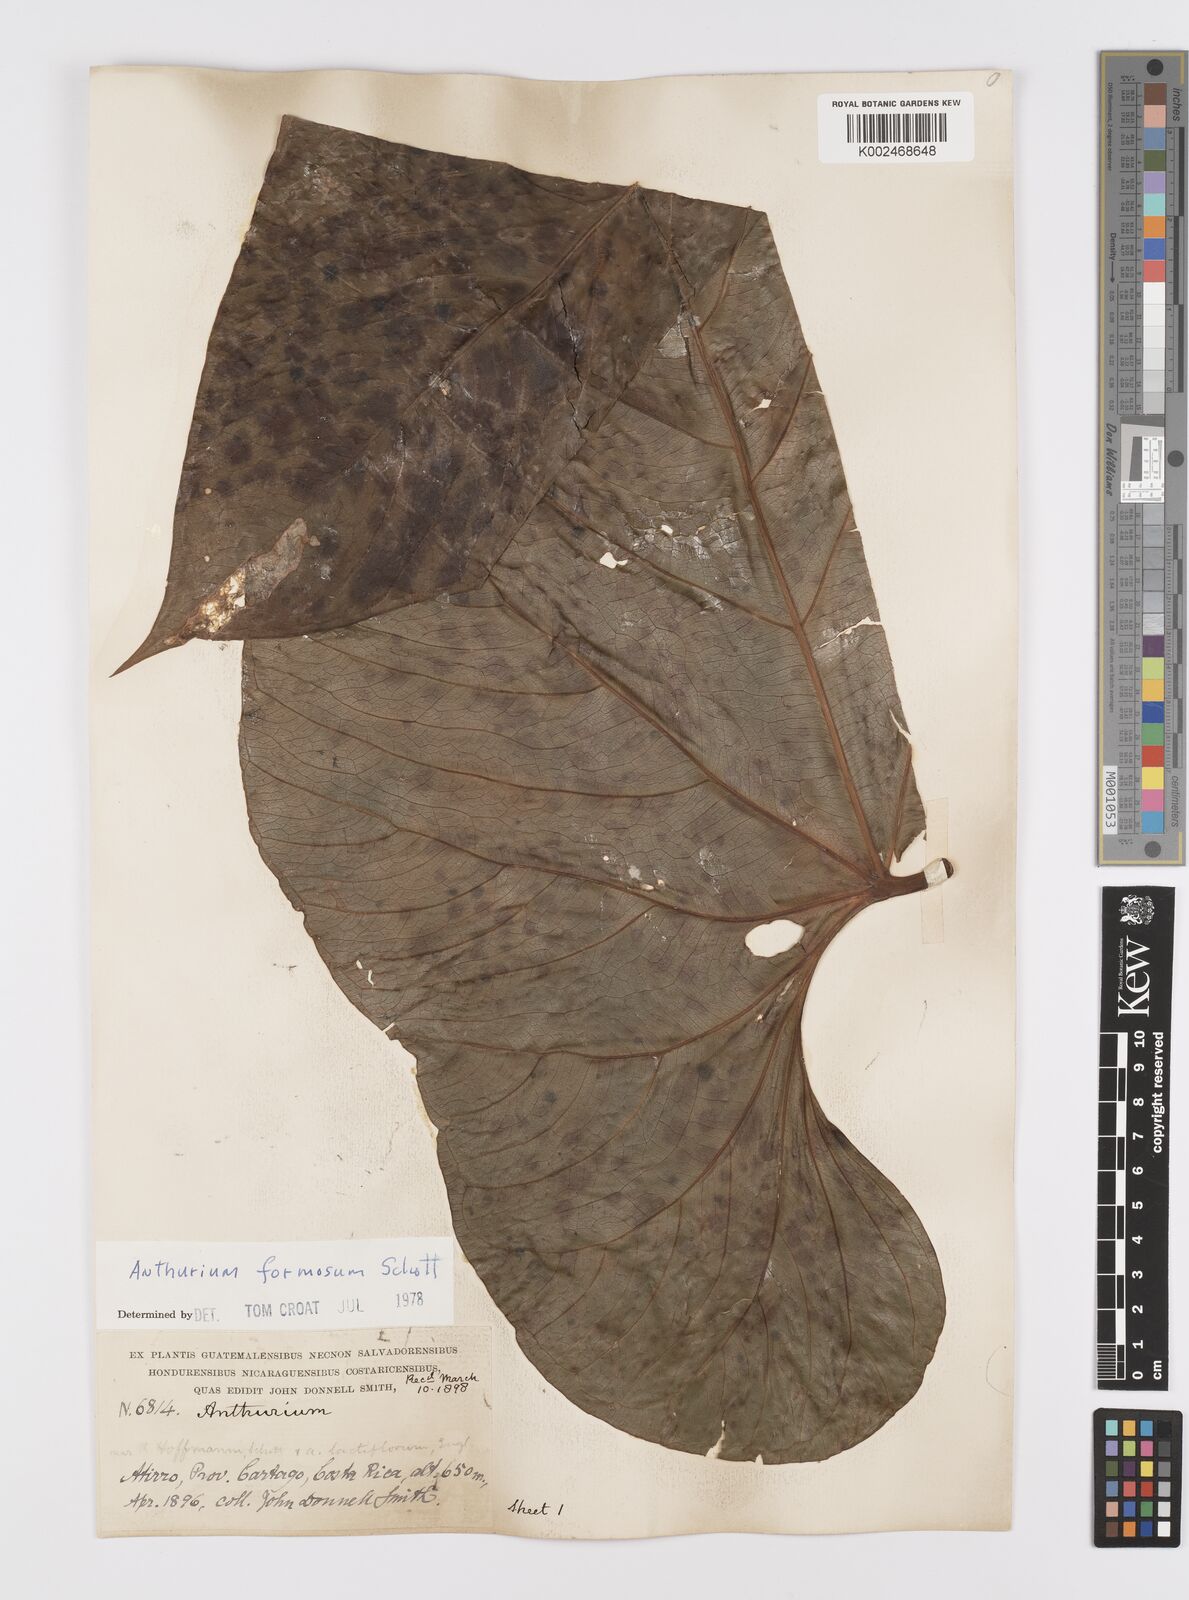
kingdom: Plantae
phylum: Tracheophyta
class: Liliopsida
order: Alismatales
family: Araceae
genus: Anthurium
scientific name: Anthurium formosum
